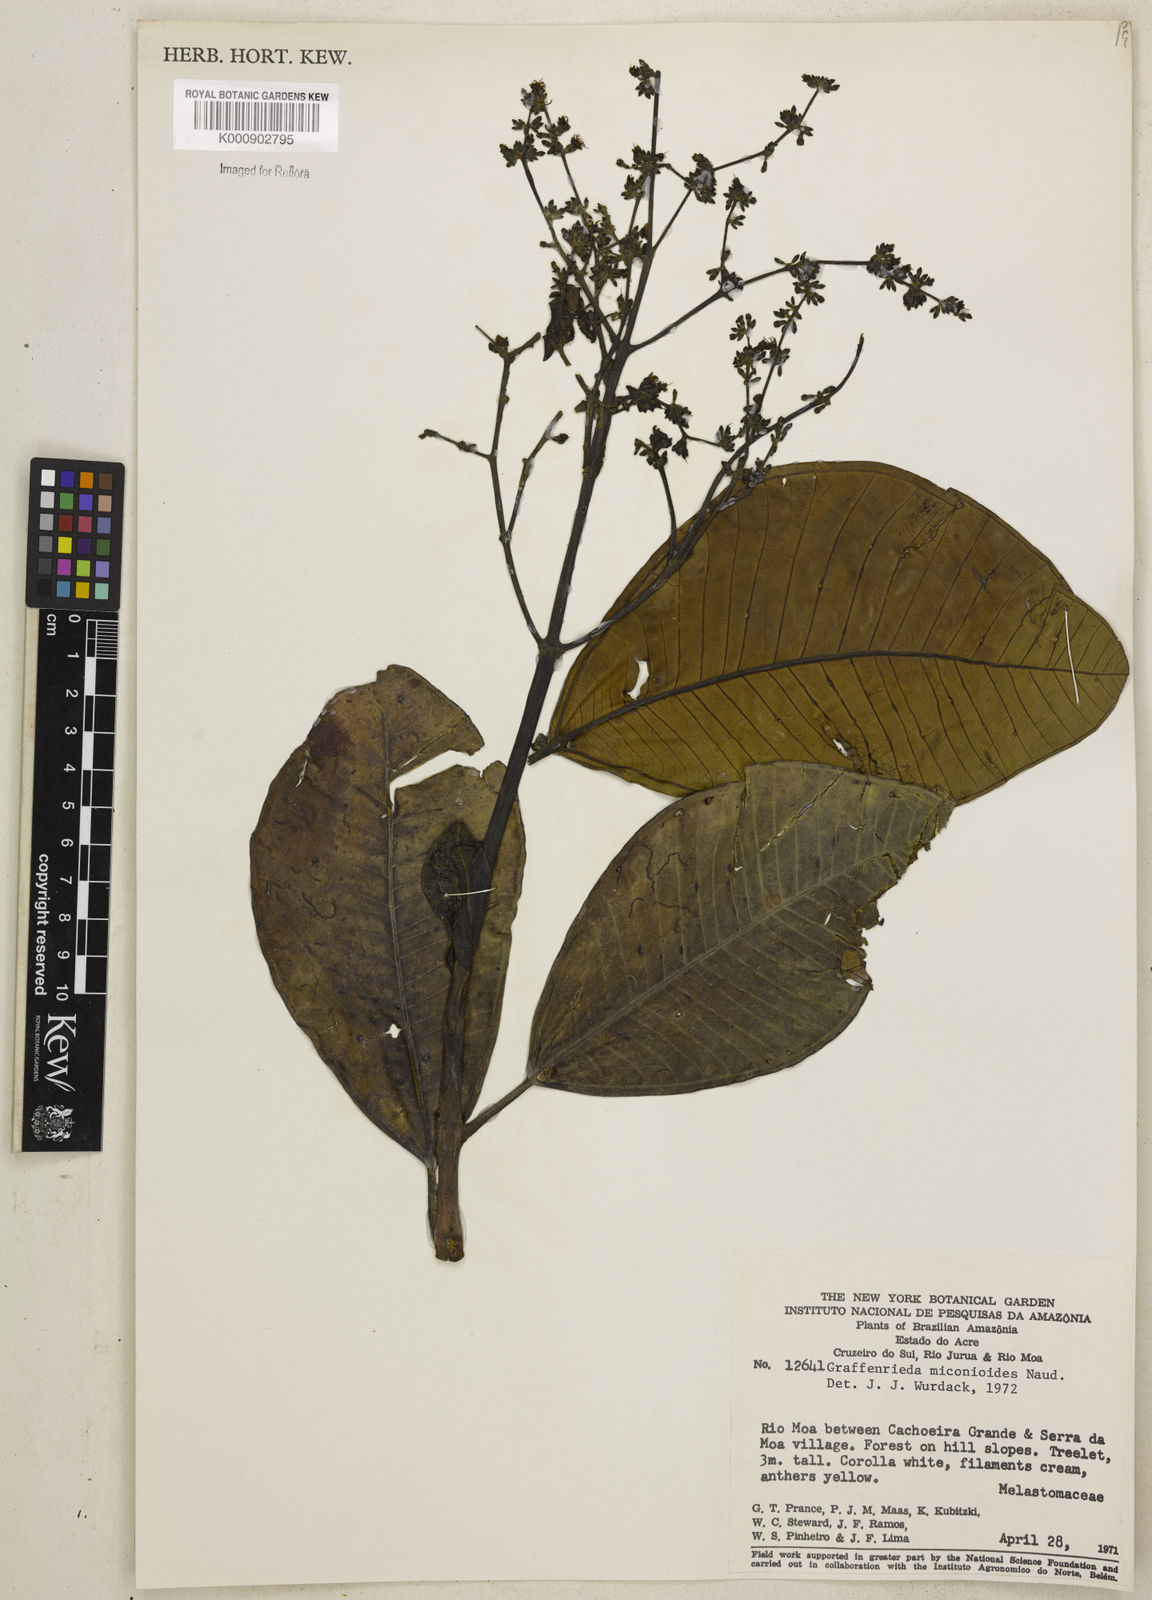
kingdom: Plantae
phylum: Tracheophyta
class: Magnoliopsida
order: Myrtales
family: Melastomataceae
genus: Graffenrieda
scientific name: Graffenrieda miconioides
